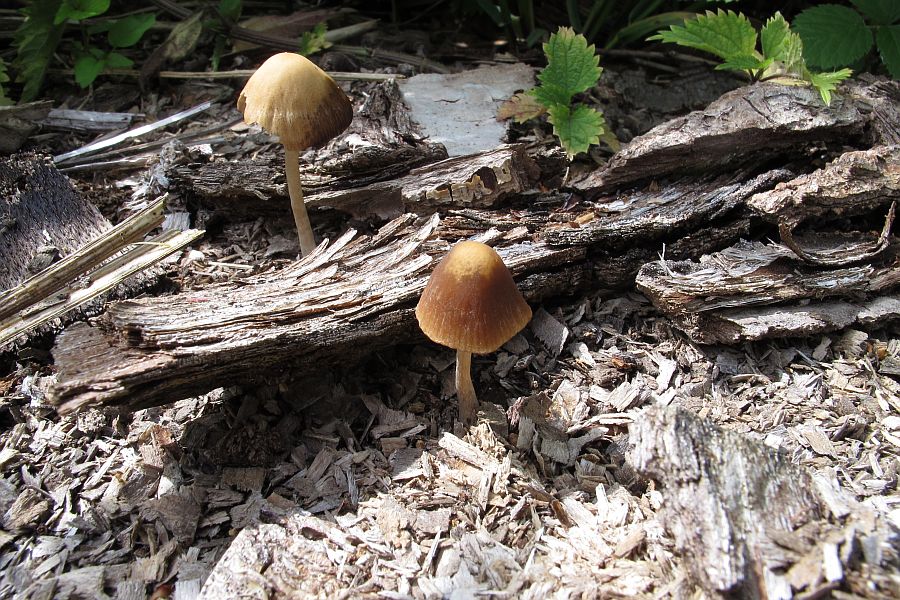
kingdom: Fungi
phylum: Basidiomycota
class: Agaricomycetes
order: Agaricales
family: Psathyrellaceae
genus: Psathyrella
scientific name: Psathyrella obtusata
